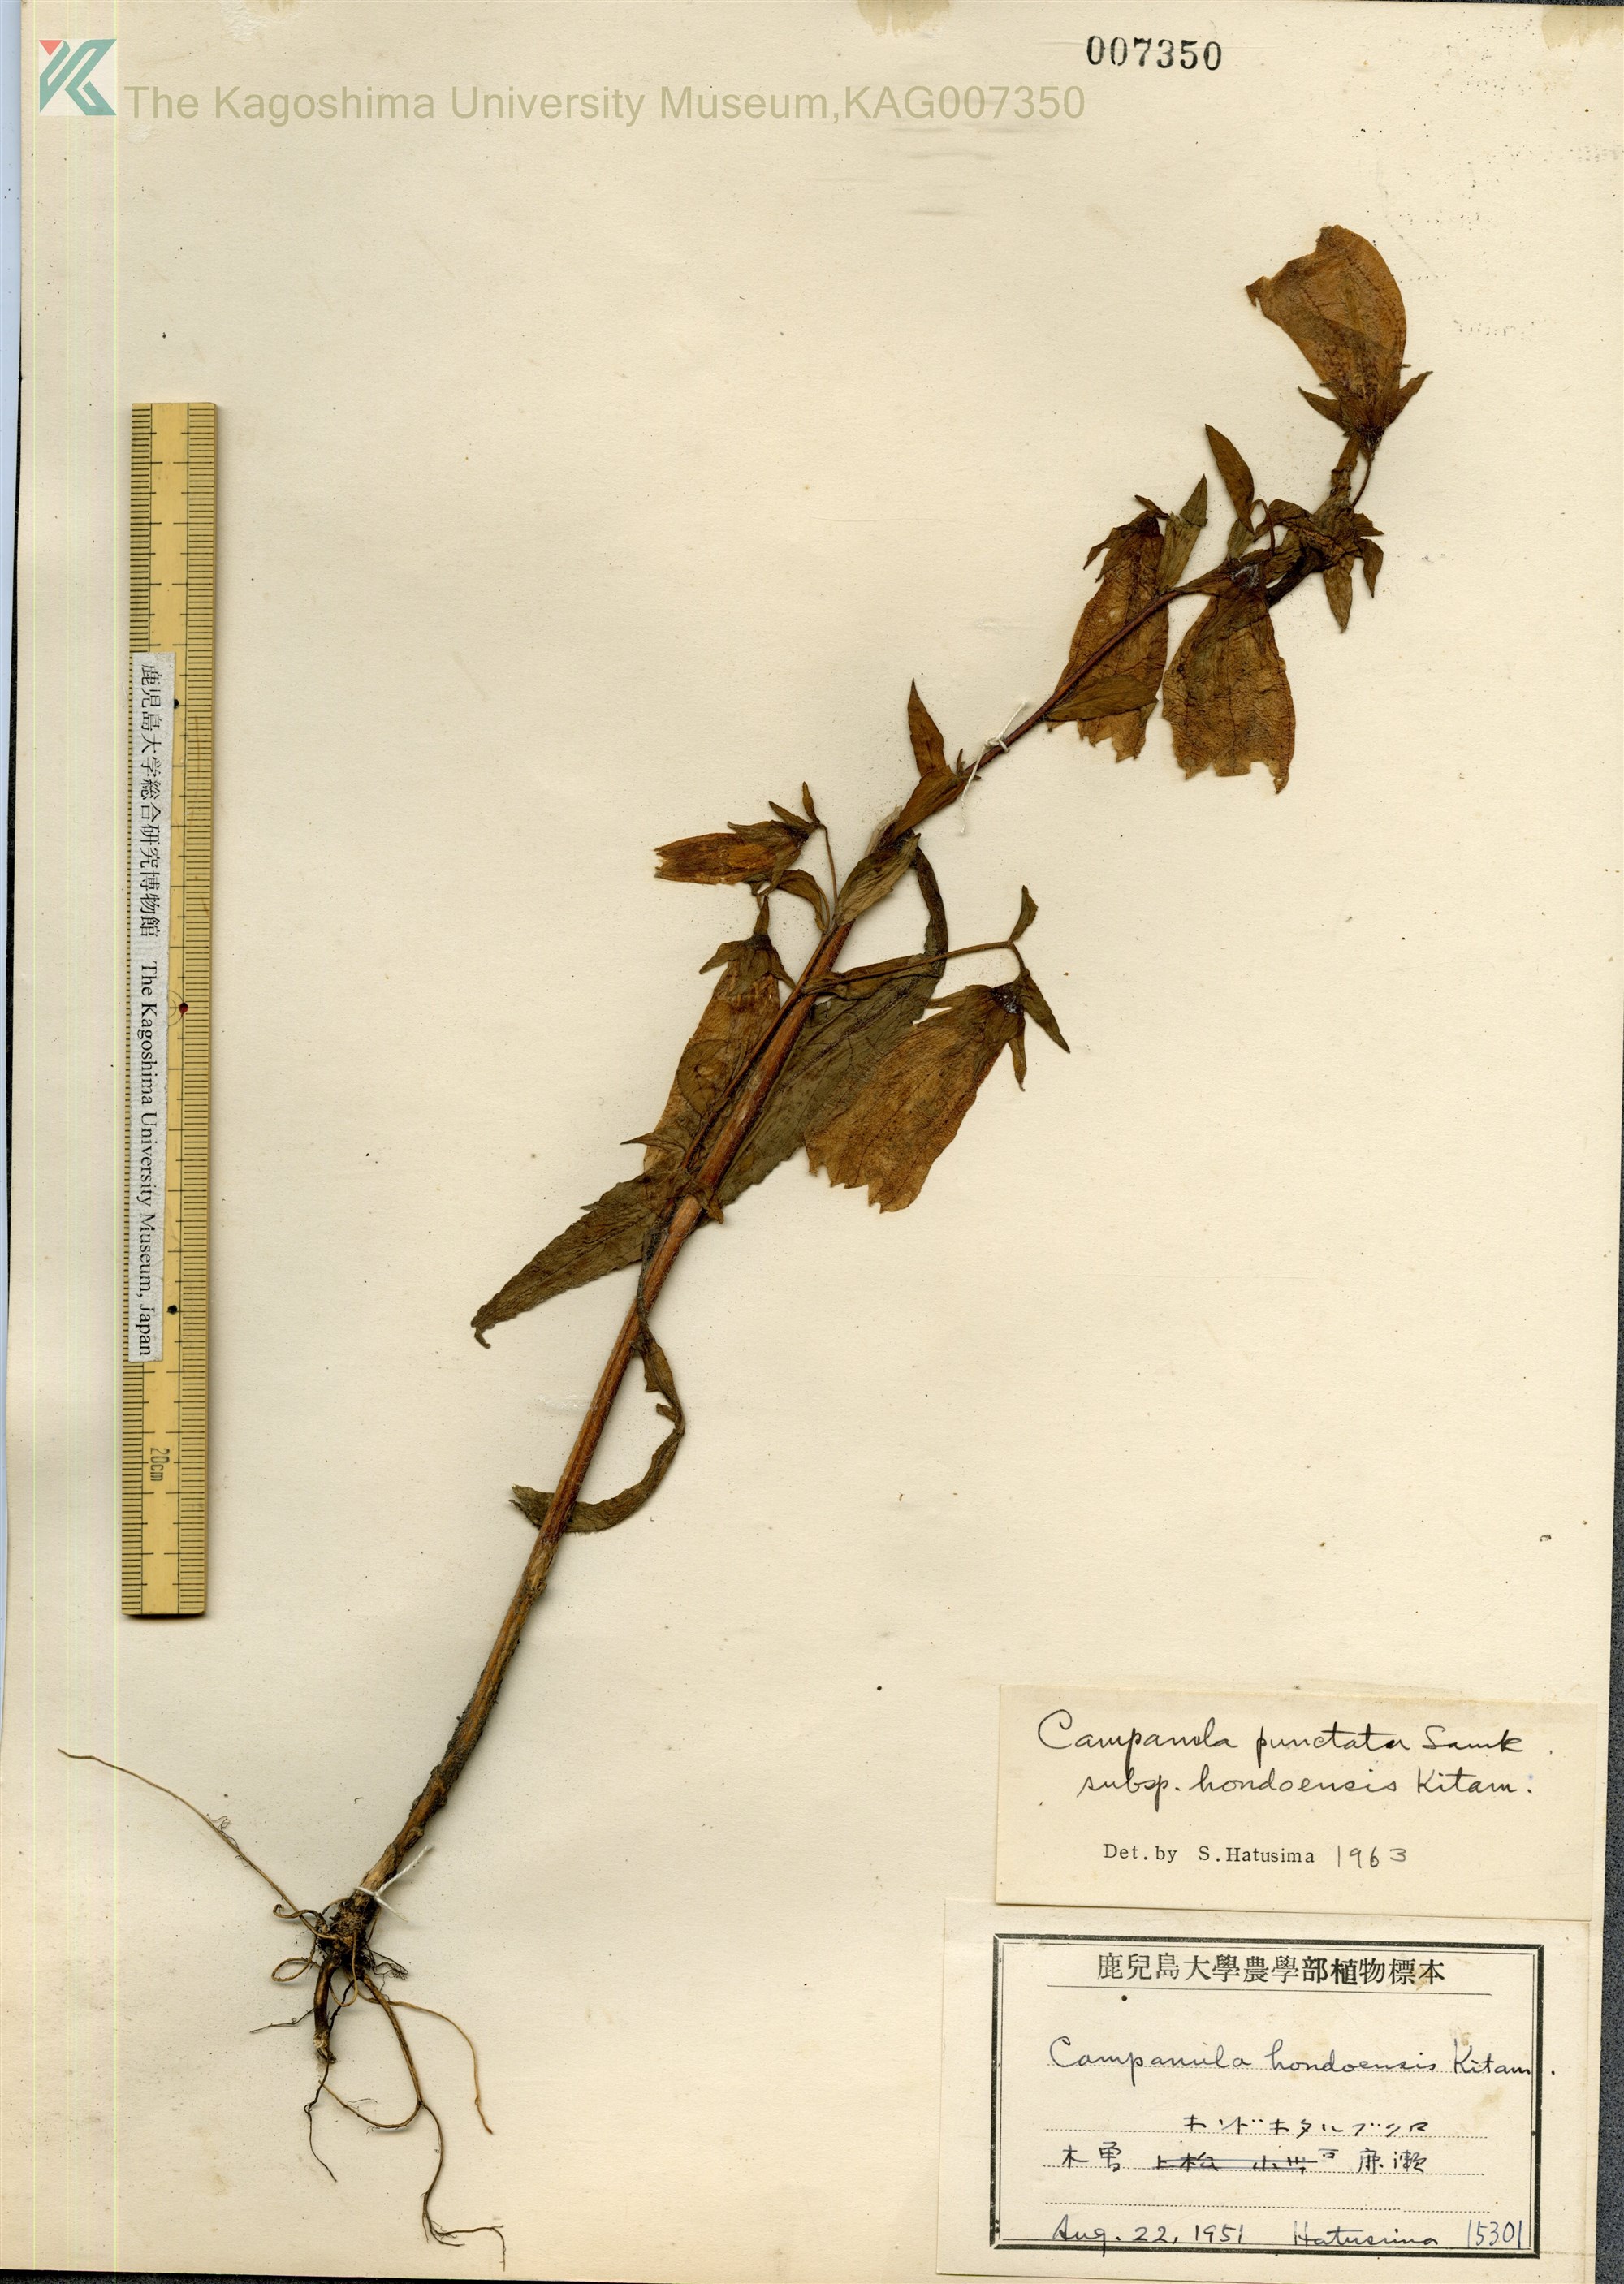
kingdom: Plantae
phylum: Tracheophyta
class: Magnoliopsida
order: Asterales
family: Campanulaceae
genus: Campanula
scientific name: Campanula punctata
